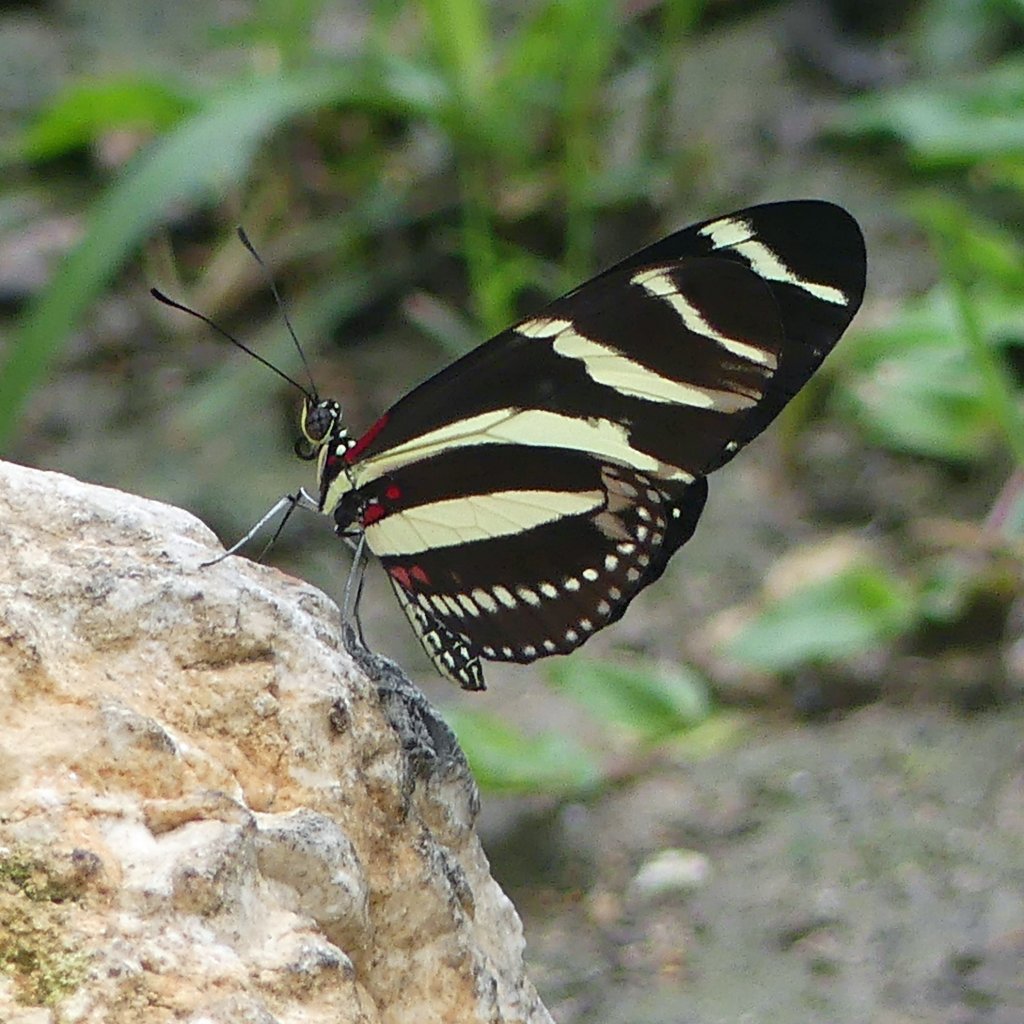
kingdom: Animalia
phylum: Arthropoda
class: Insecta
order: Lepidoptera
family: Nymphalidae
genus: Heliconius
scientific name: Heliconius charithonia
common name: Zebra Longwing
